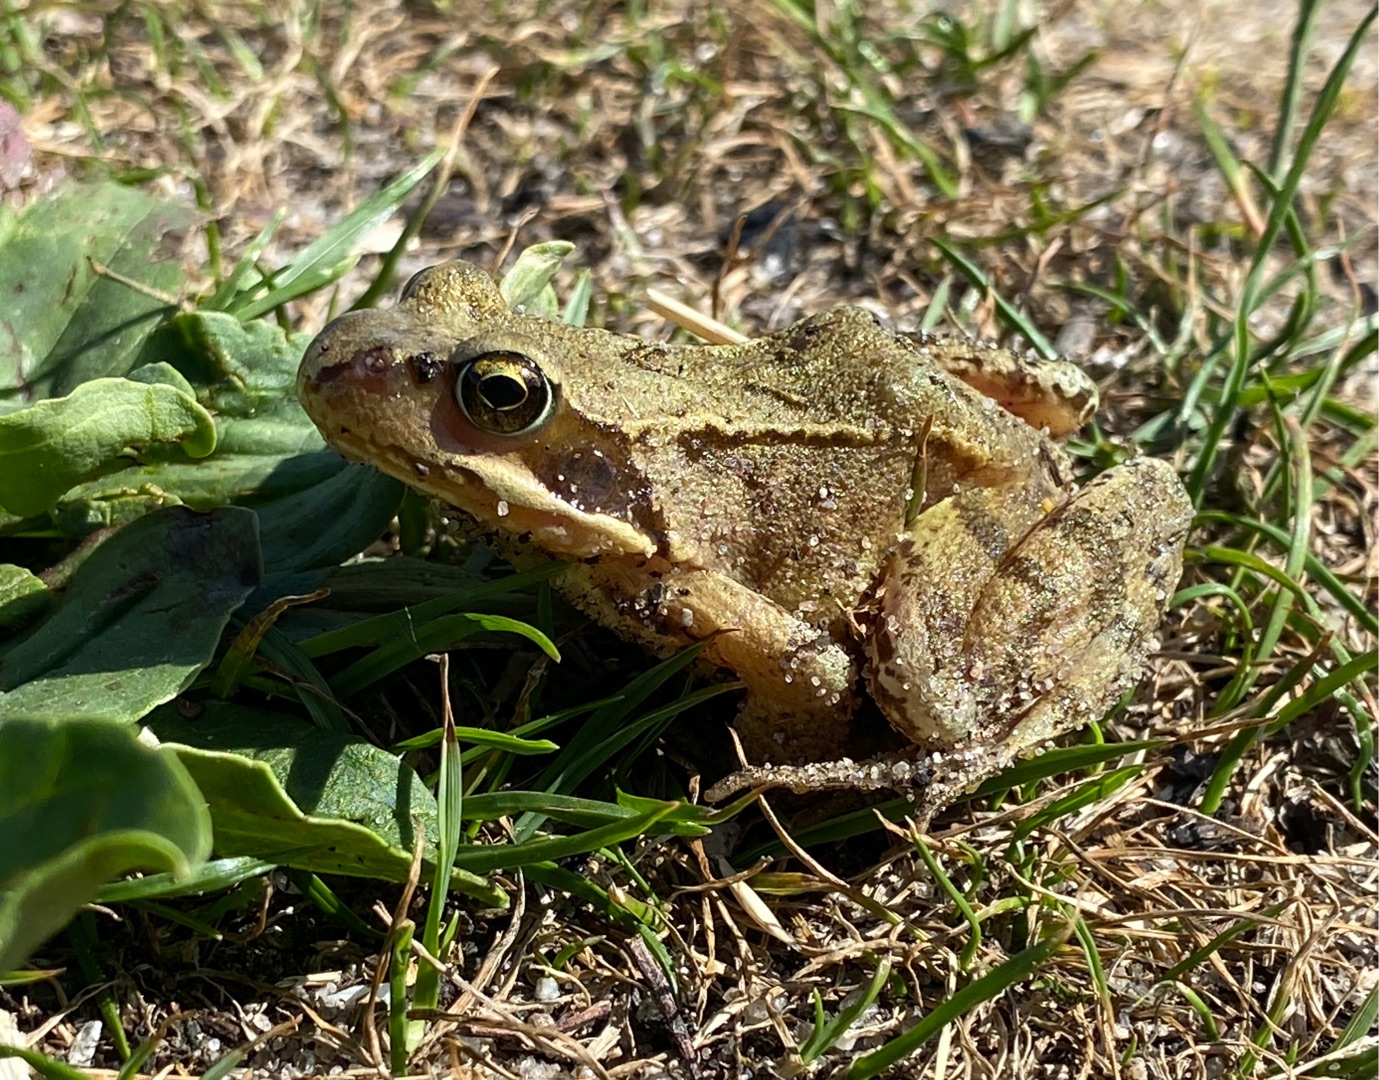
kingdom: Animalia
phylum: Chordata
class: Amphibia
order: Anura
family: Ranidae
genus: Rana
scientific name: Rana temporaria
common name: Butsnudet frø
